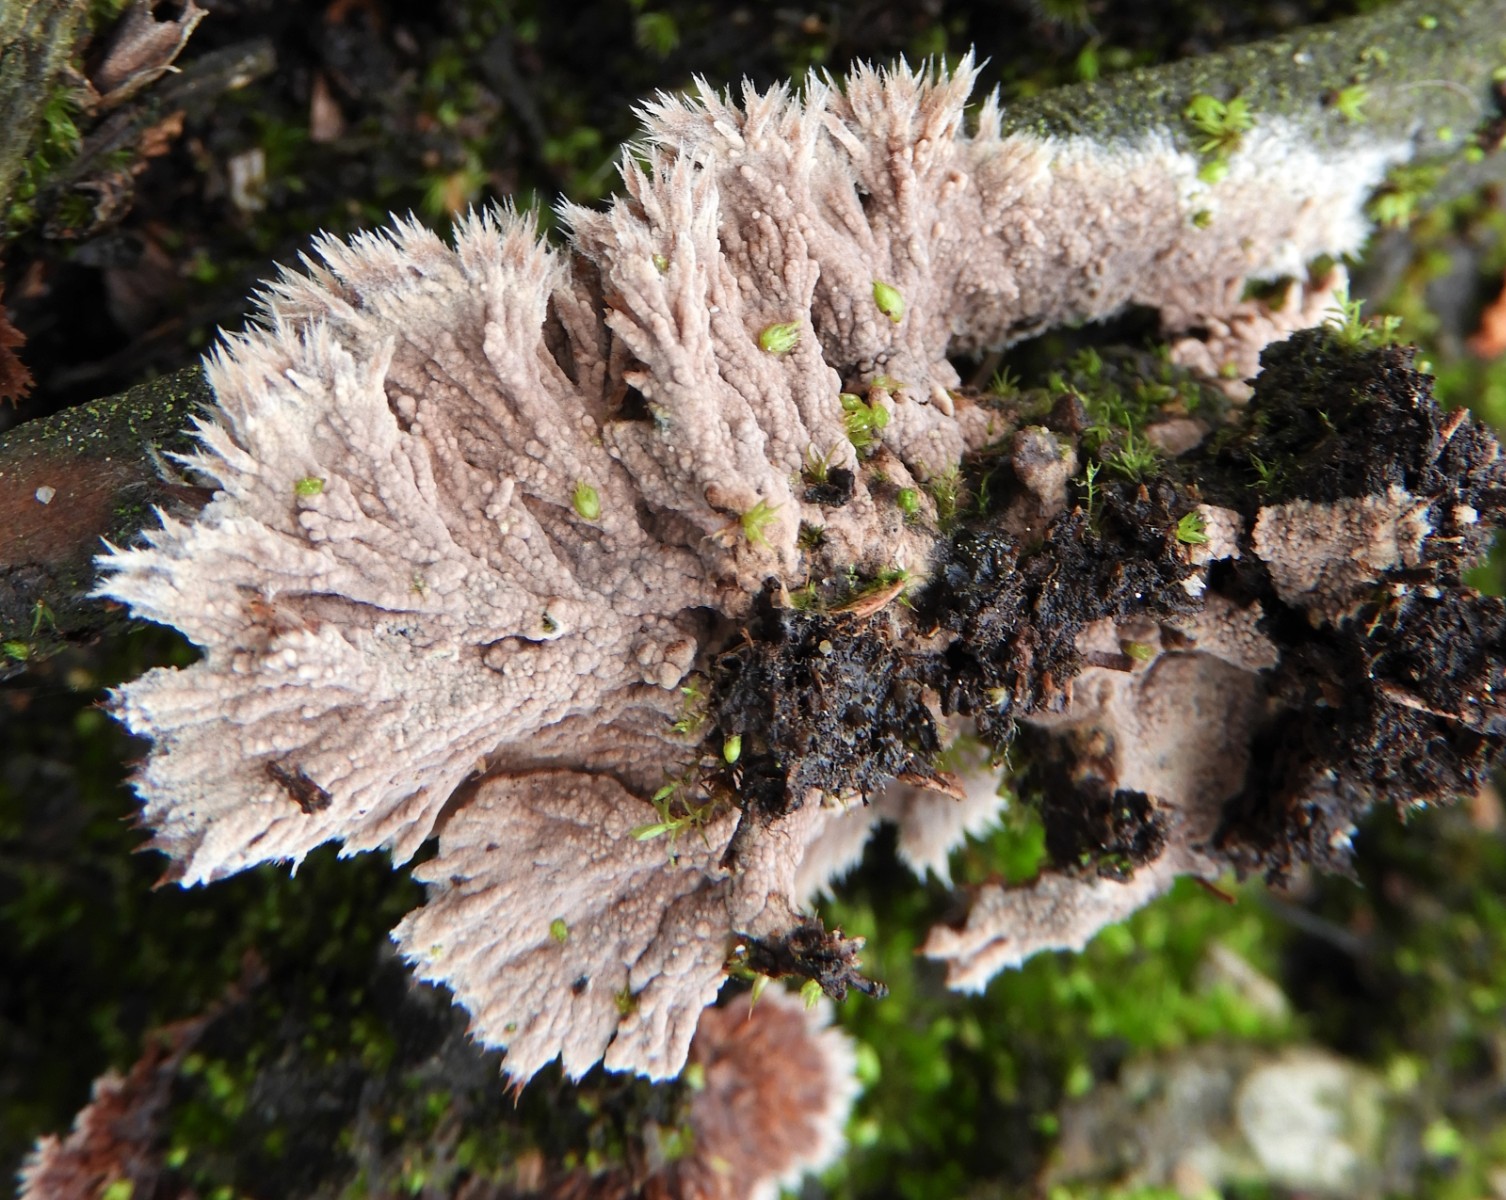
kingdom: Fungi
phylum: Basidiomycota
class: Agaricomycetes
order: Thelephorales
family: Thelephoraceae
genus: Thelephora
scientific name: Thelephora terrestris
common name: fliget frynsesvamp
